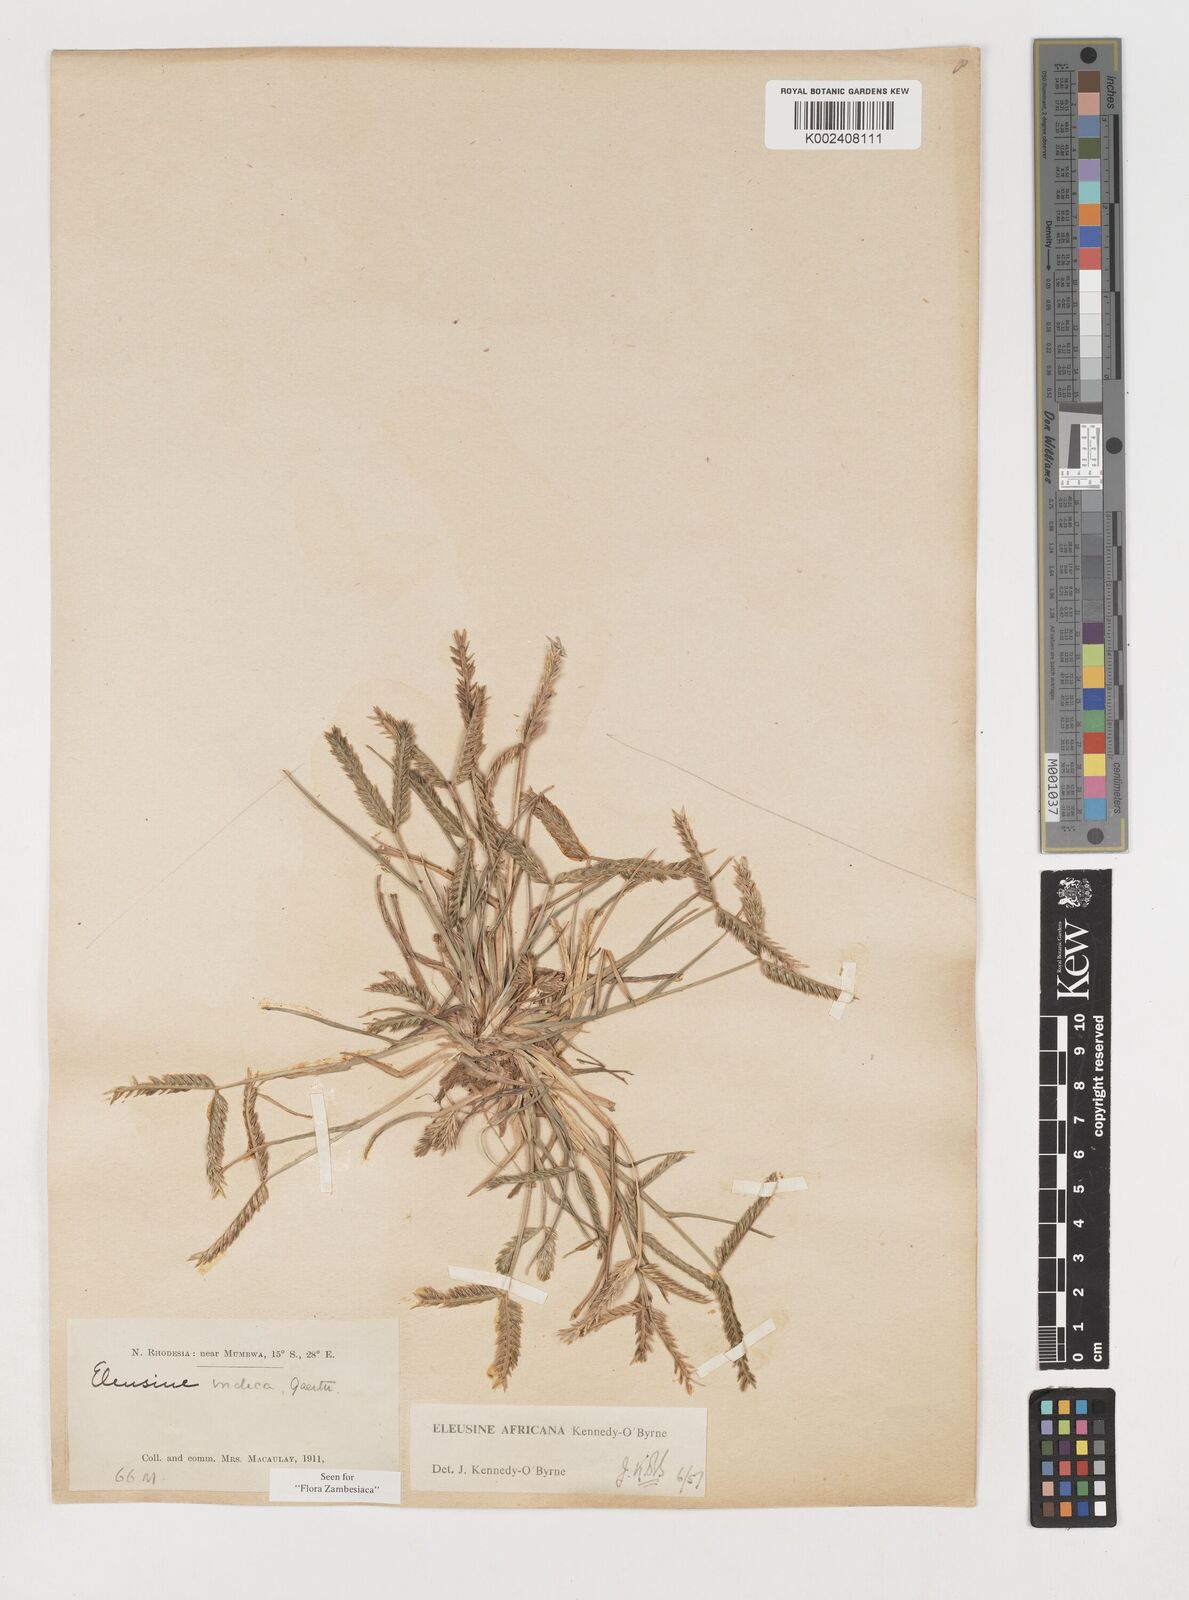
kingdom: Plantae
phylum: Tracheophyta
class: Liliopsida
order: Poales
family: Poaceae
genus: Eleusine
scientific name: Eleusine africana
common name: Wild african finger millet
